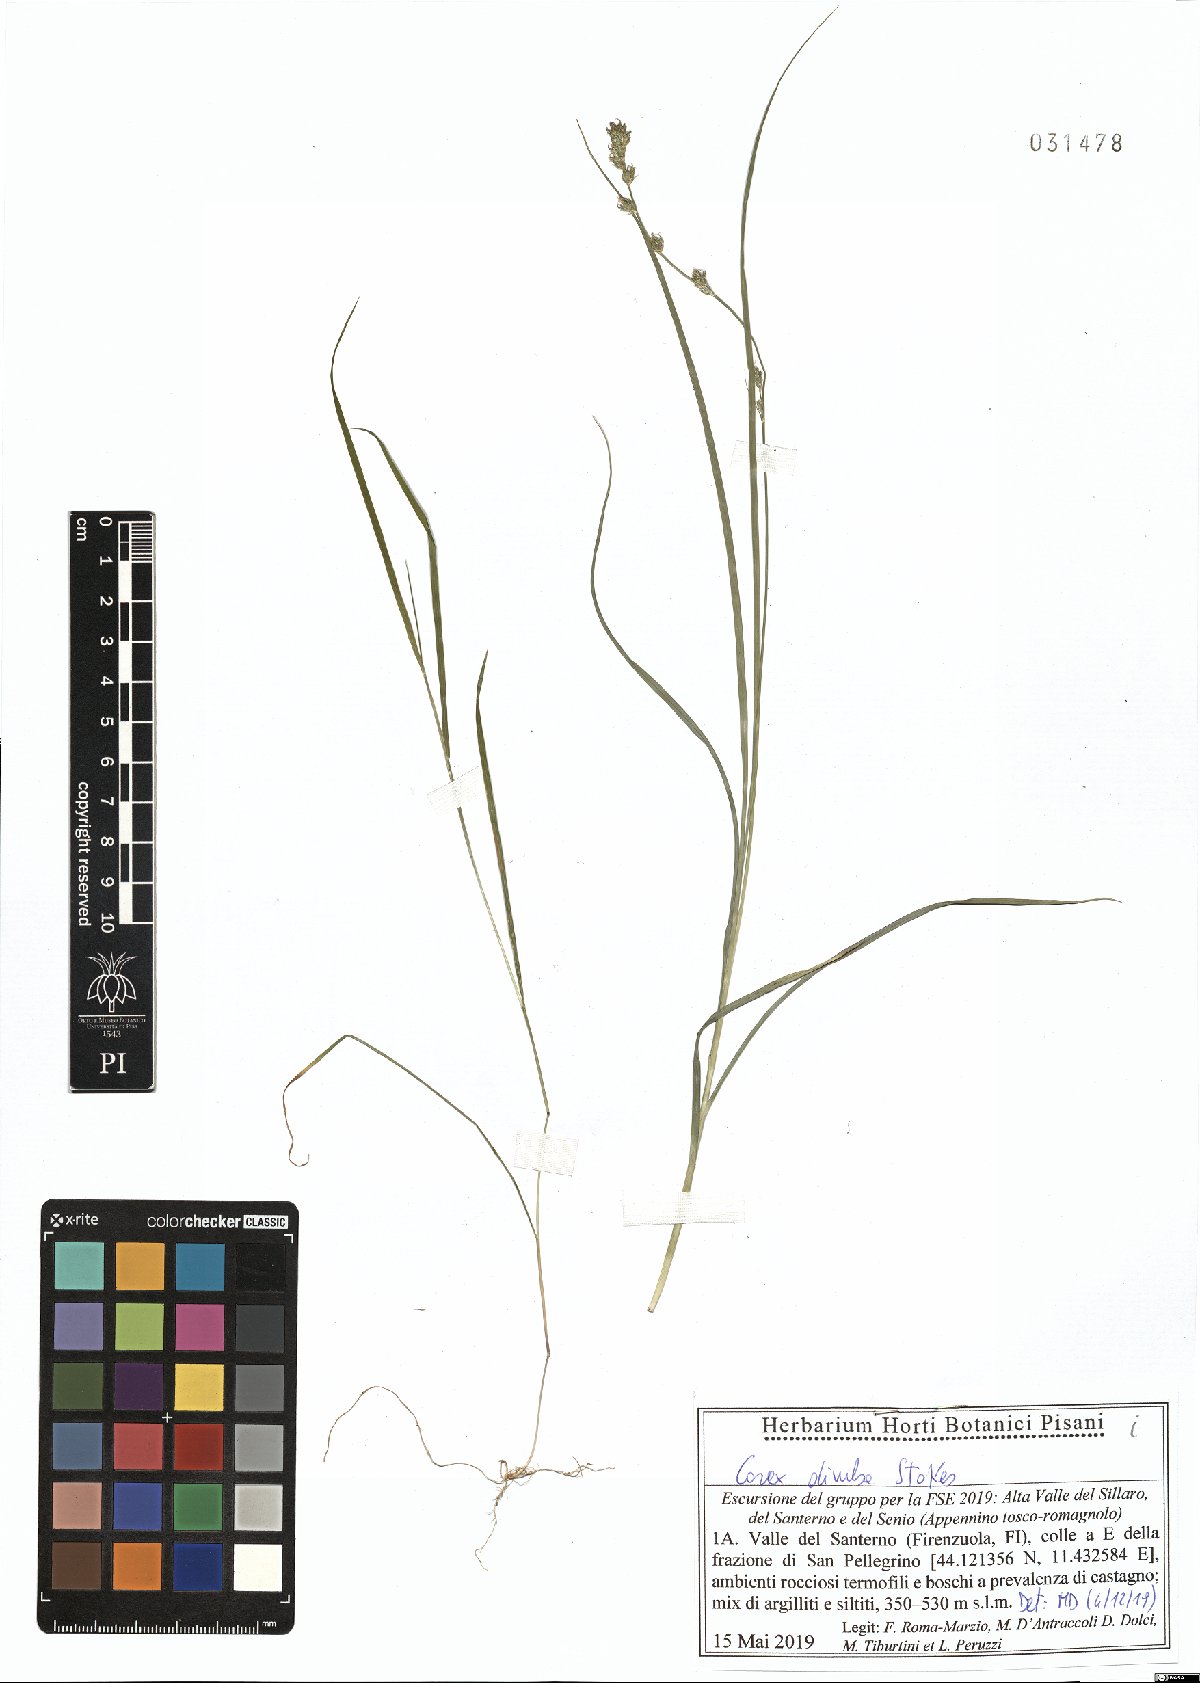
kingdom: Plantae
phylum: Tracheophyta
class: Liliopsida
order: Poales
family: Cyperaceae
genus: Carex
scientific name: Carex divulsa
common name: Grassland sedge
